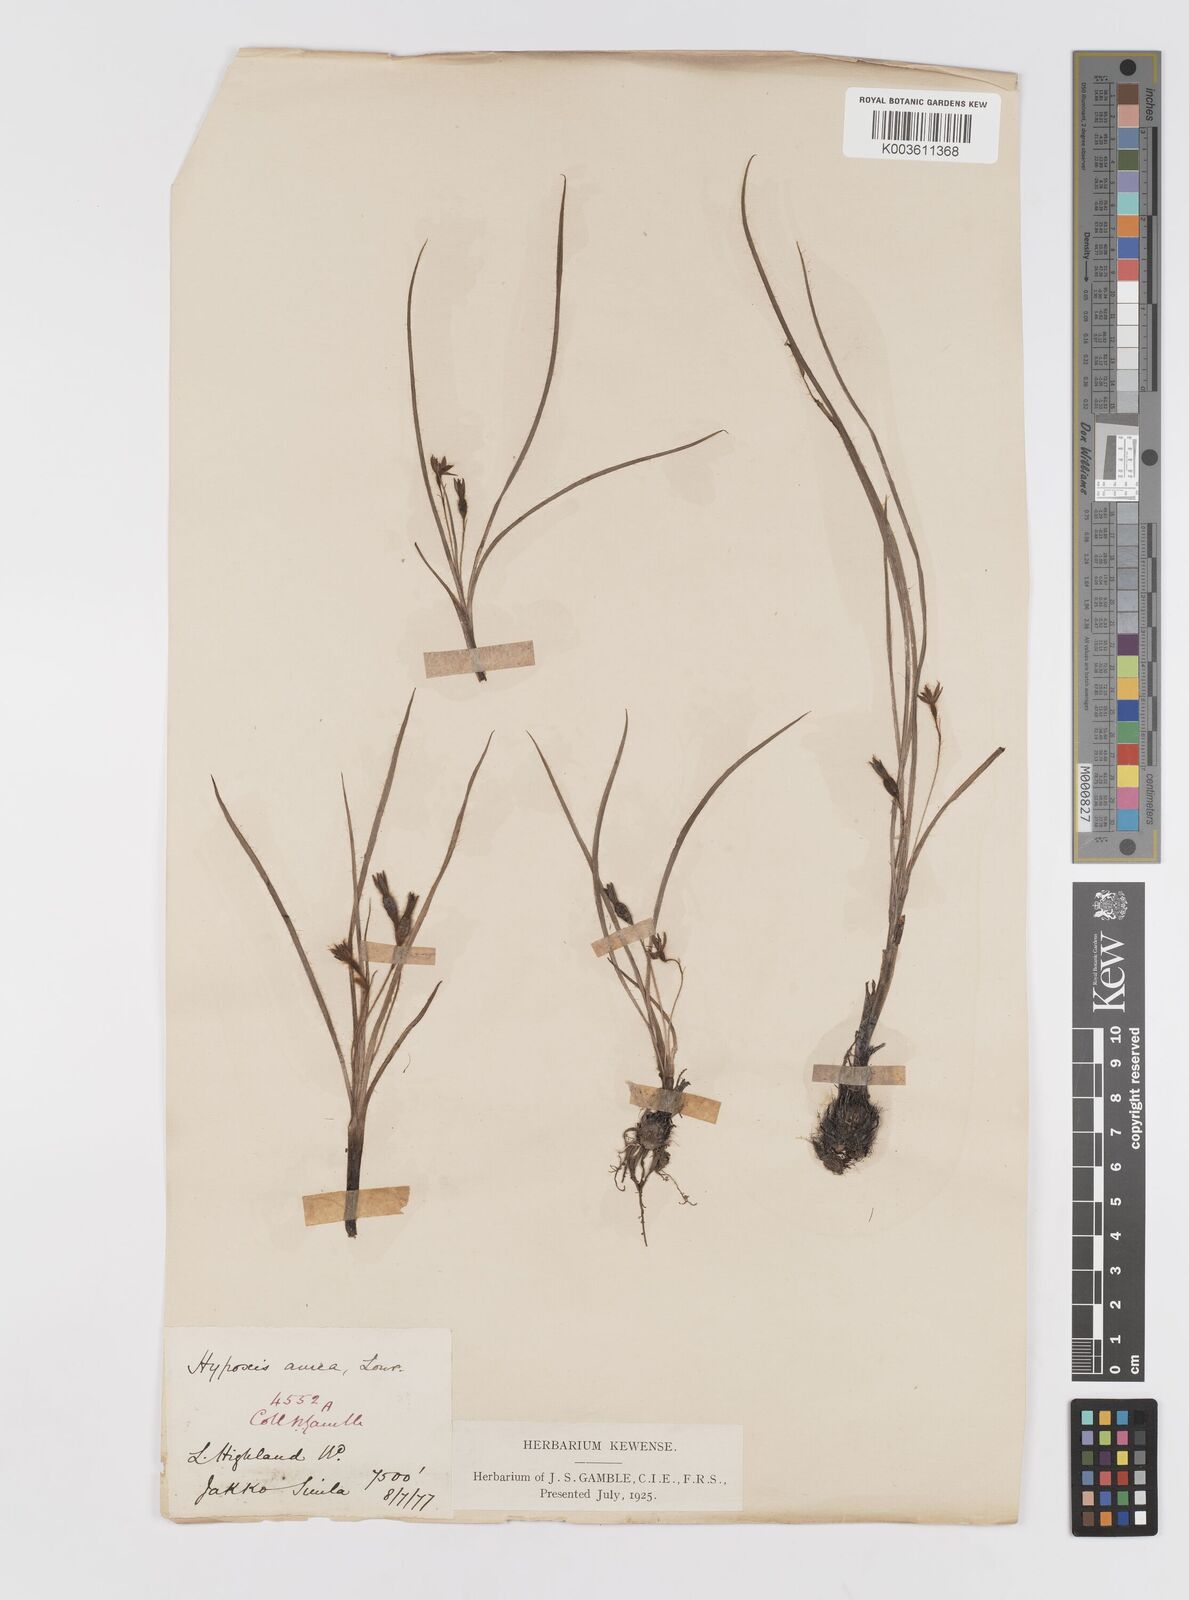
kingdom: Plantae
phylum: Tracheophyta
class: Liliopsida
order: Asparagales
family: Hypoxidaceae
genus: Hypoxis
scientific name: Hypoxis aurea
